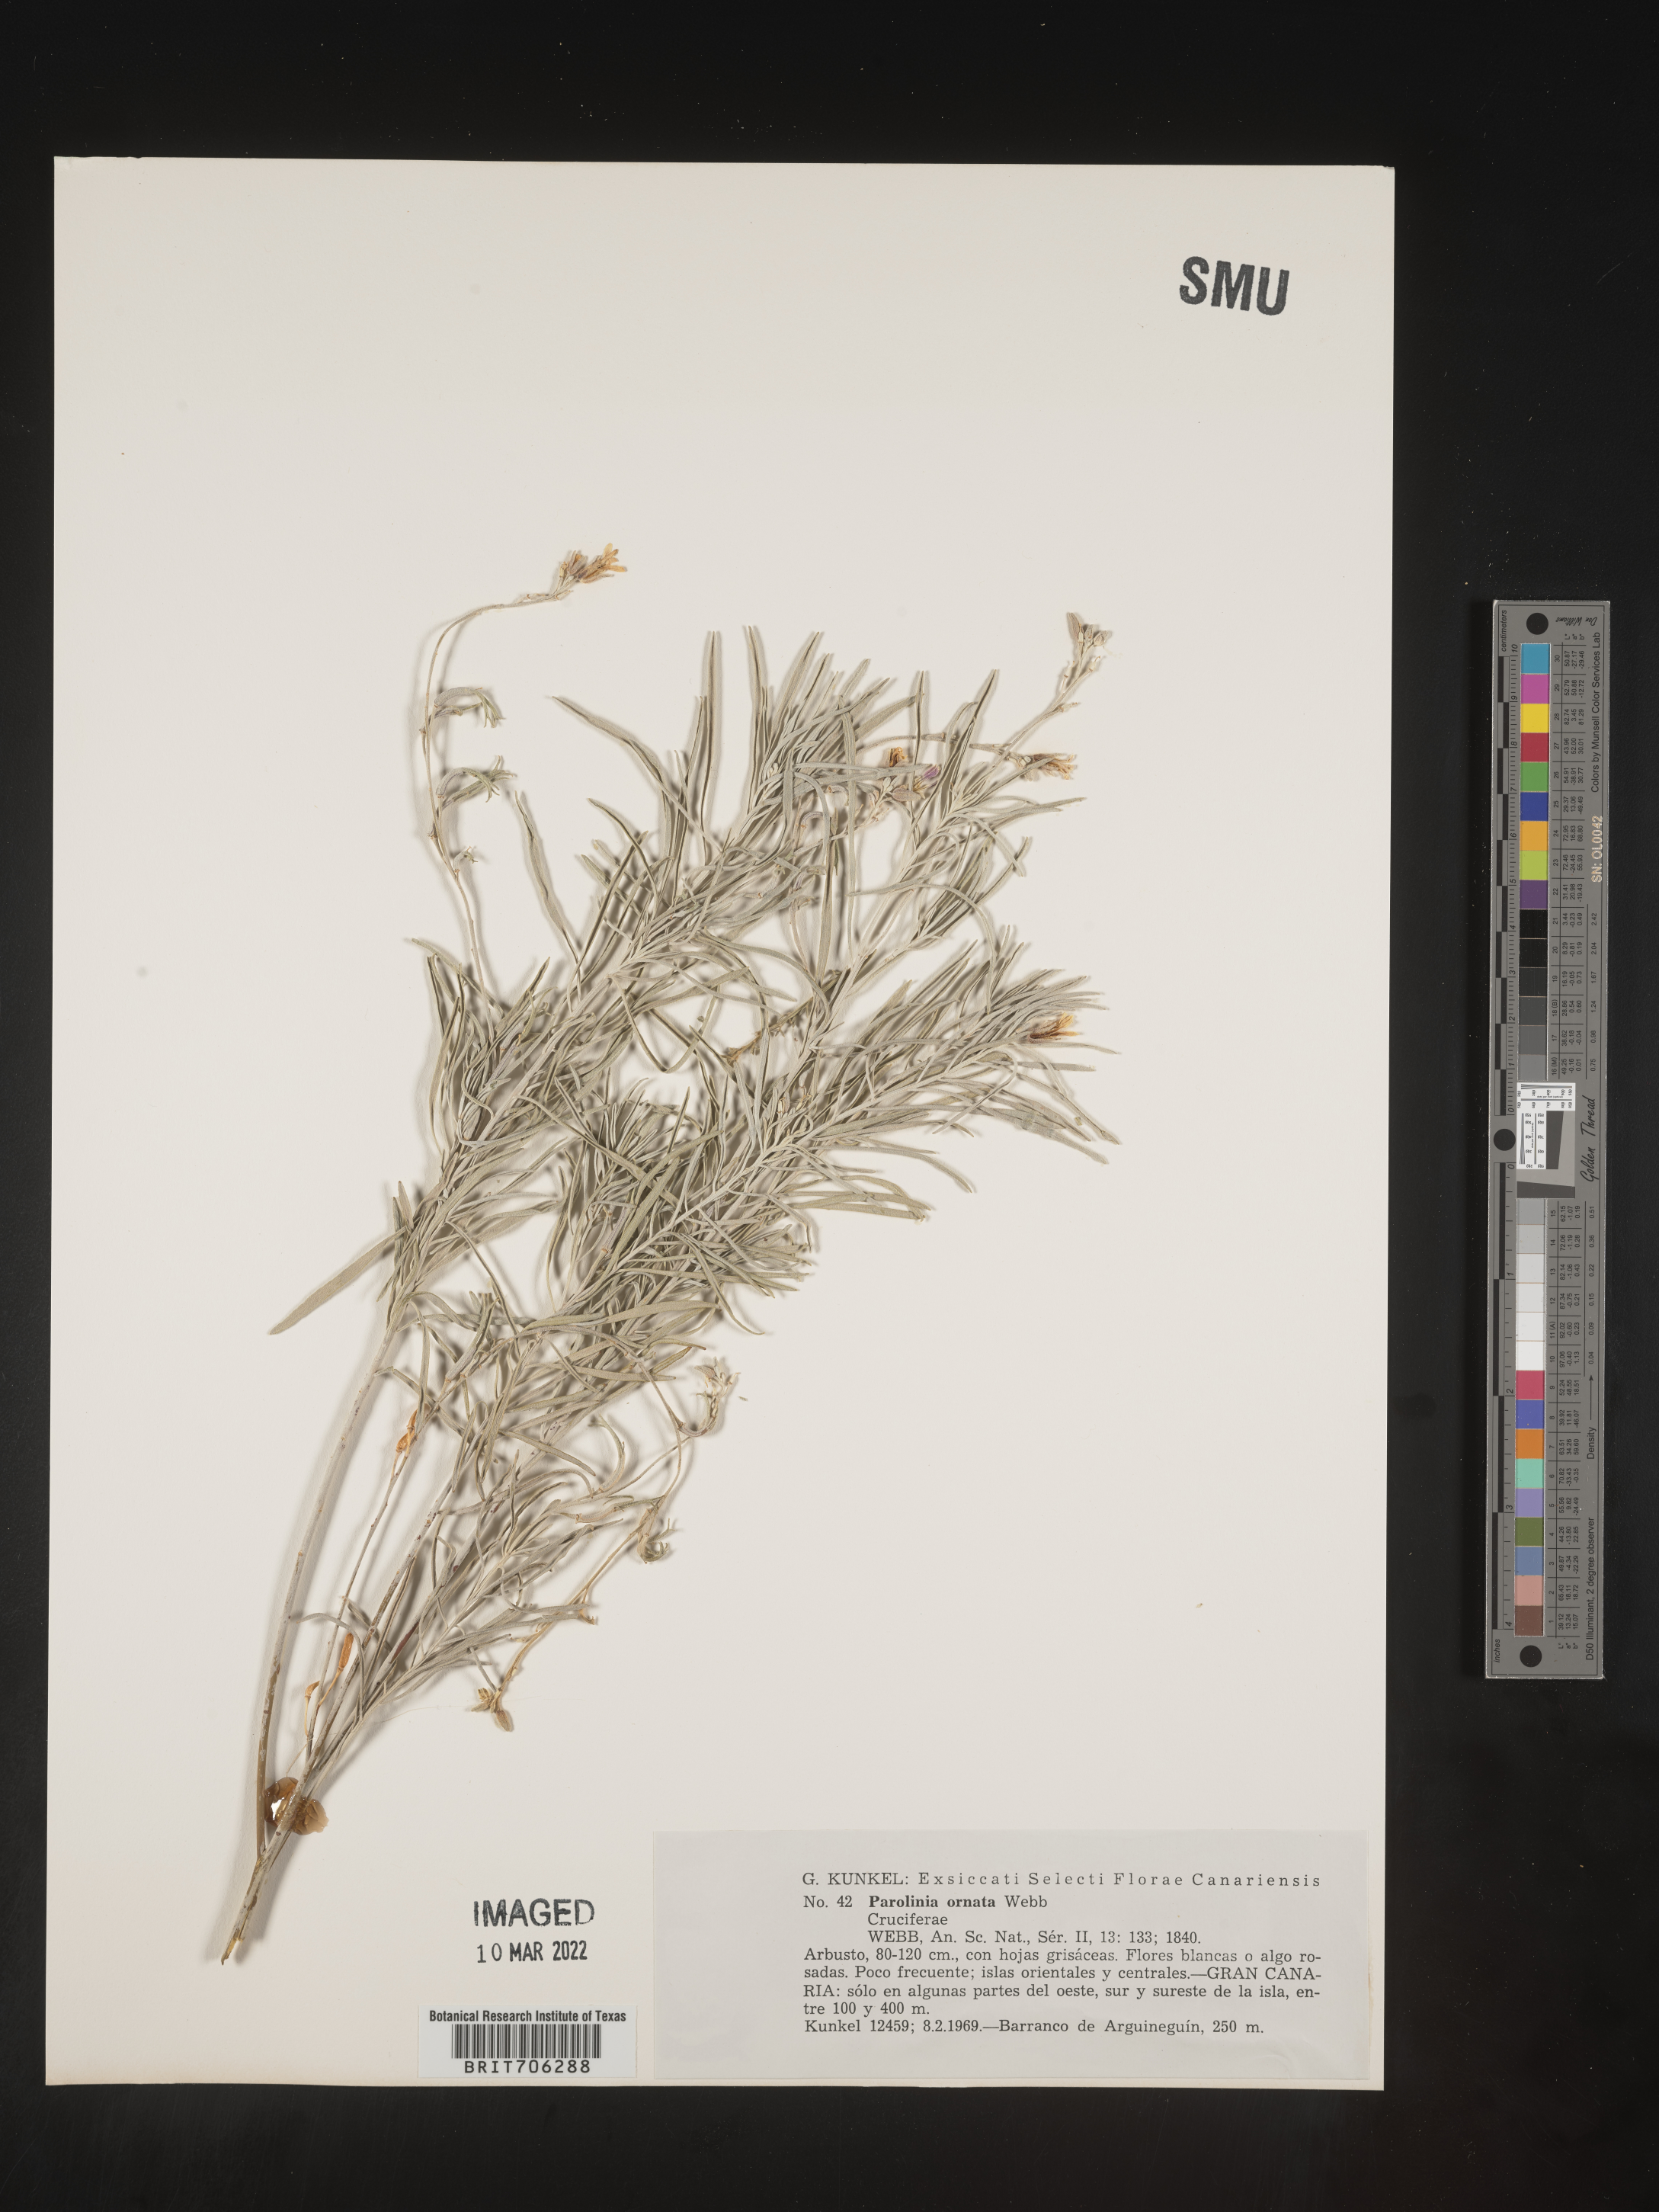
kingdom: Plantae
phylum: Tracheophyta
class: Magnoliopsida
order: Brassicales
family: Brassicaceae
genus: Parolinia
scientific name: Parolinia
